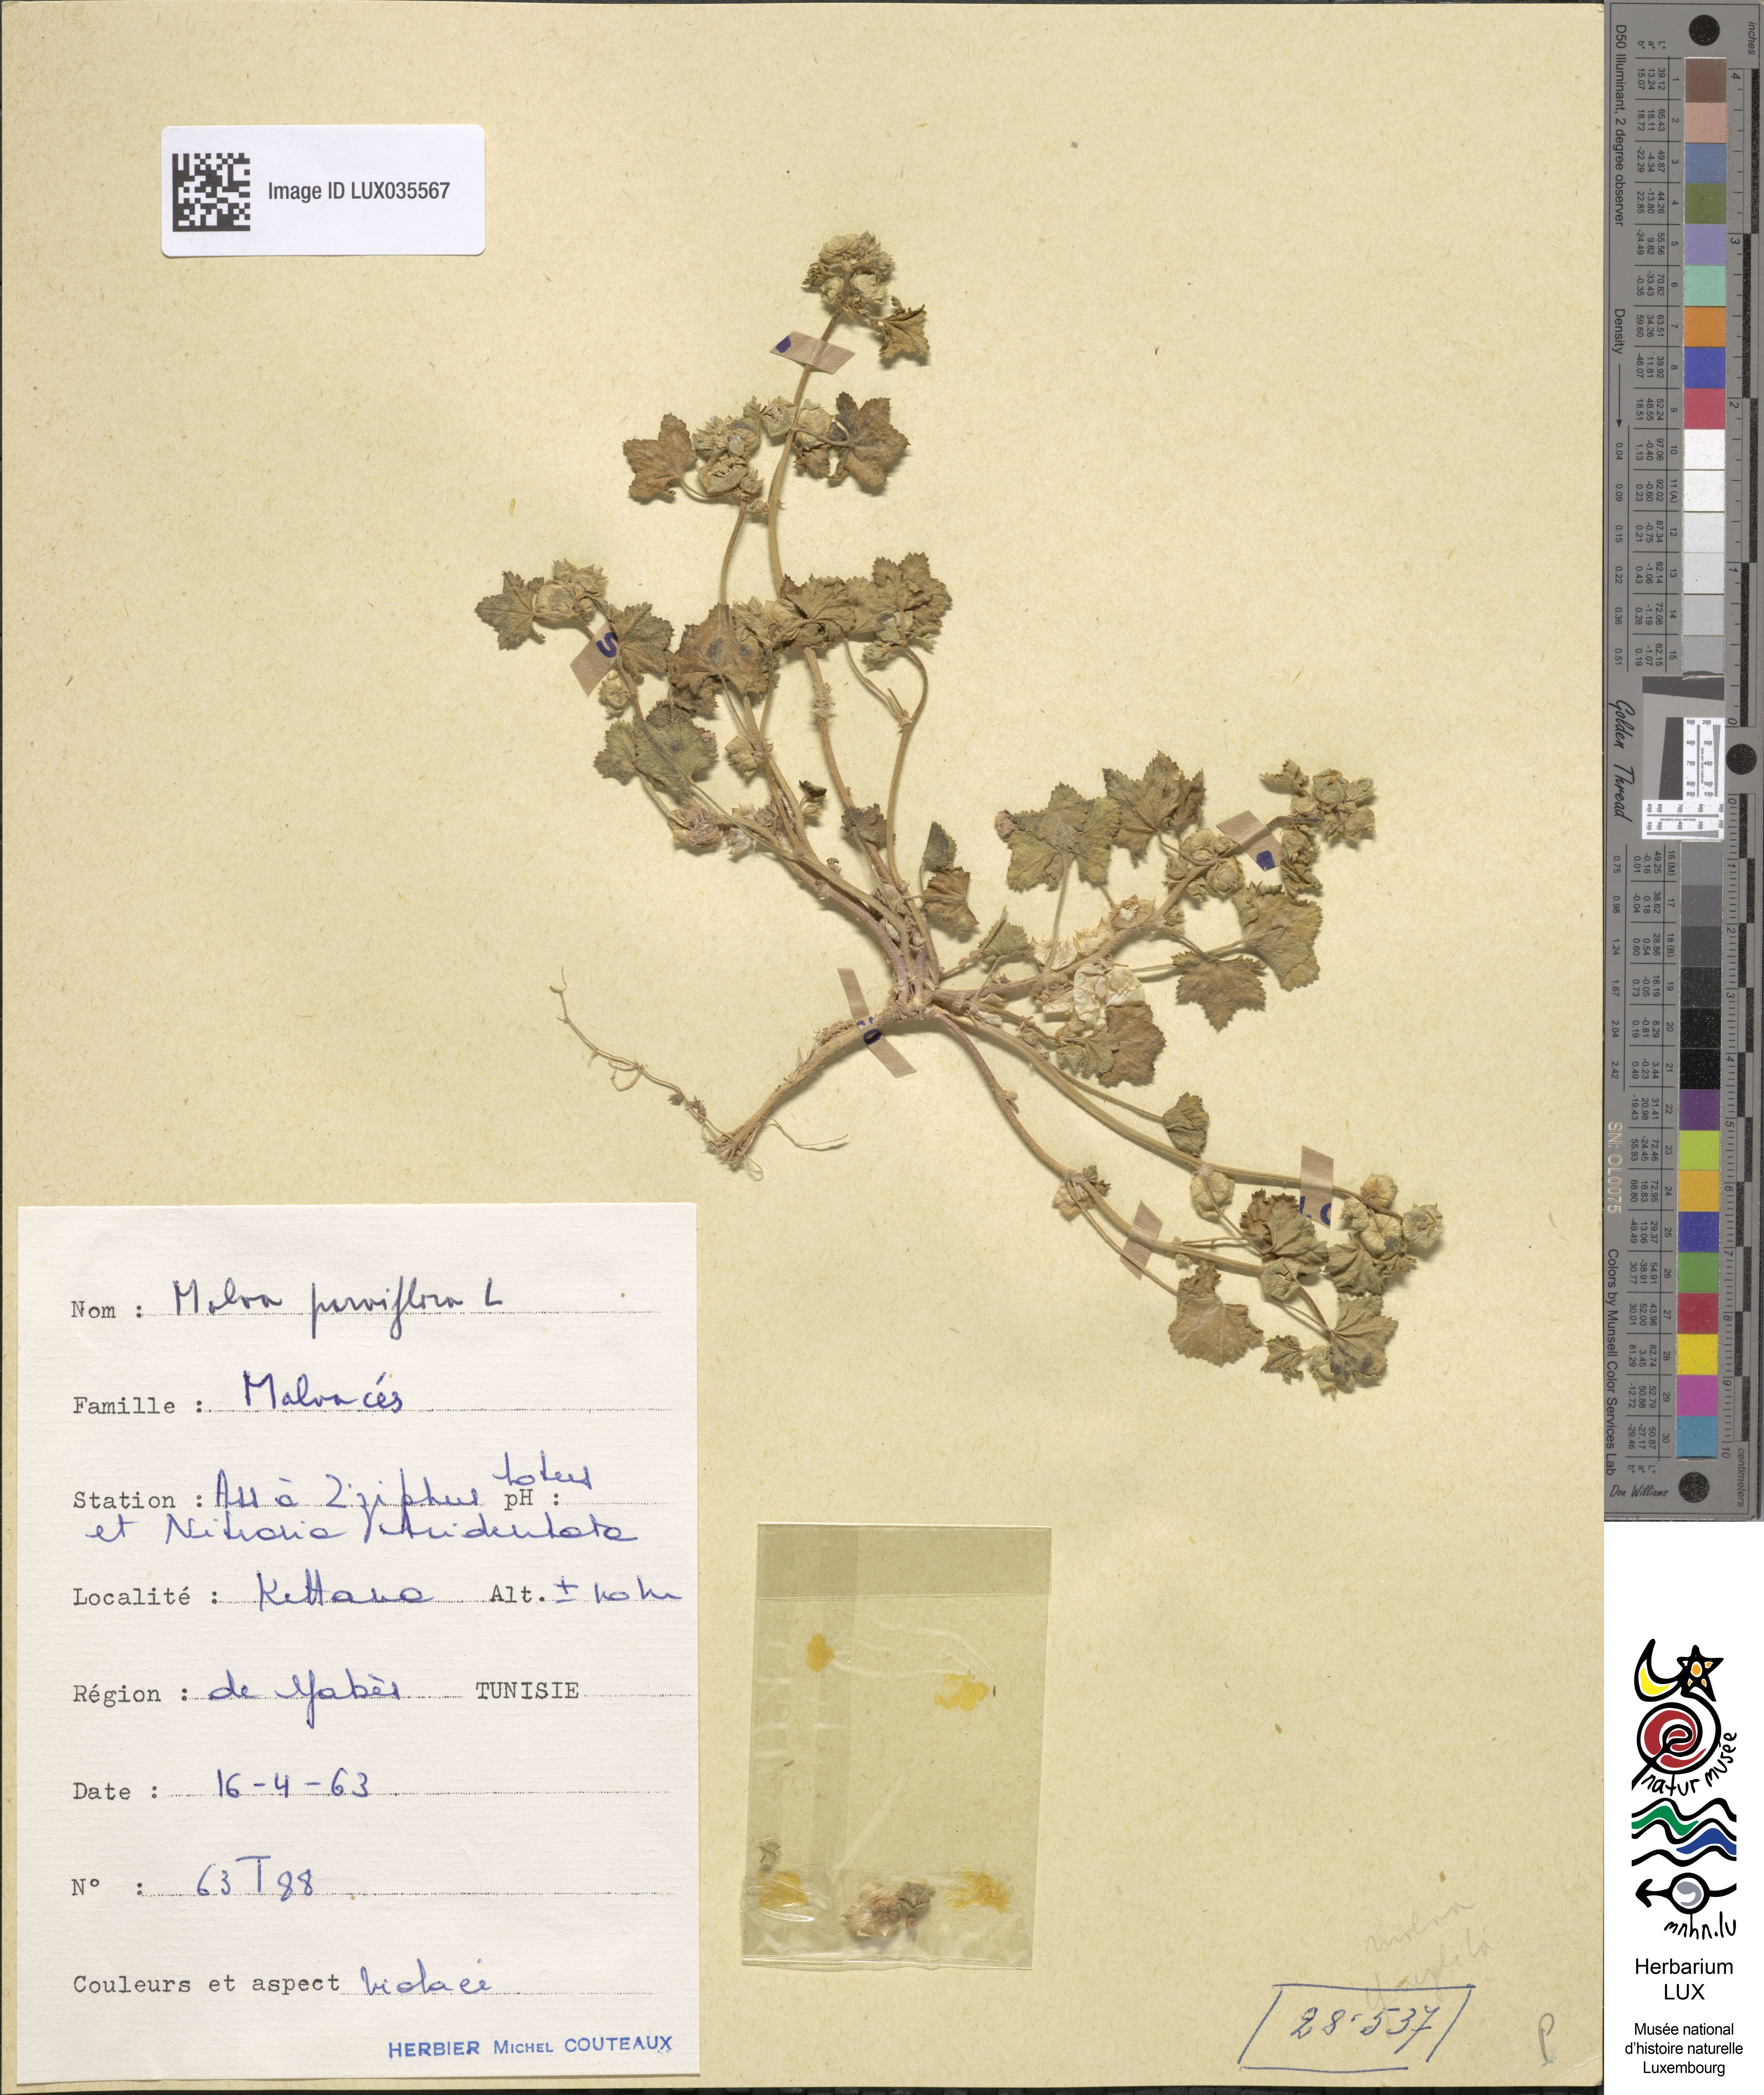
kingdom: Plantae
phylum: Tracheophyta
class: Magnoliopsida
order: Malvales
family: Malvaceae
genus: Malva
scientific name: Malva parviflora
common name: Least mallow
